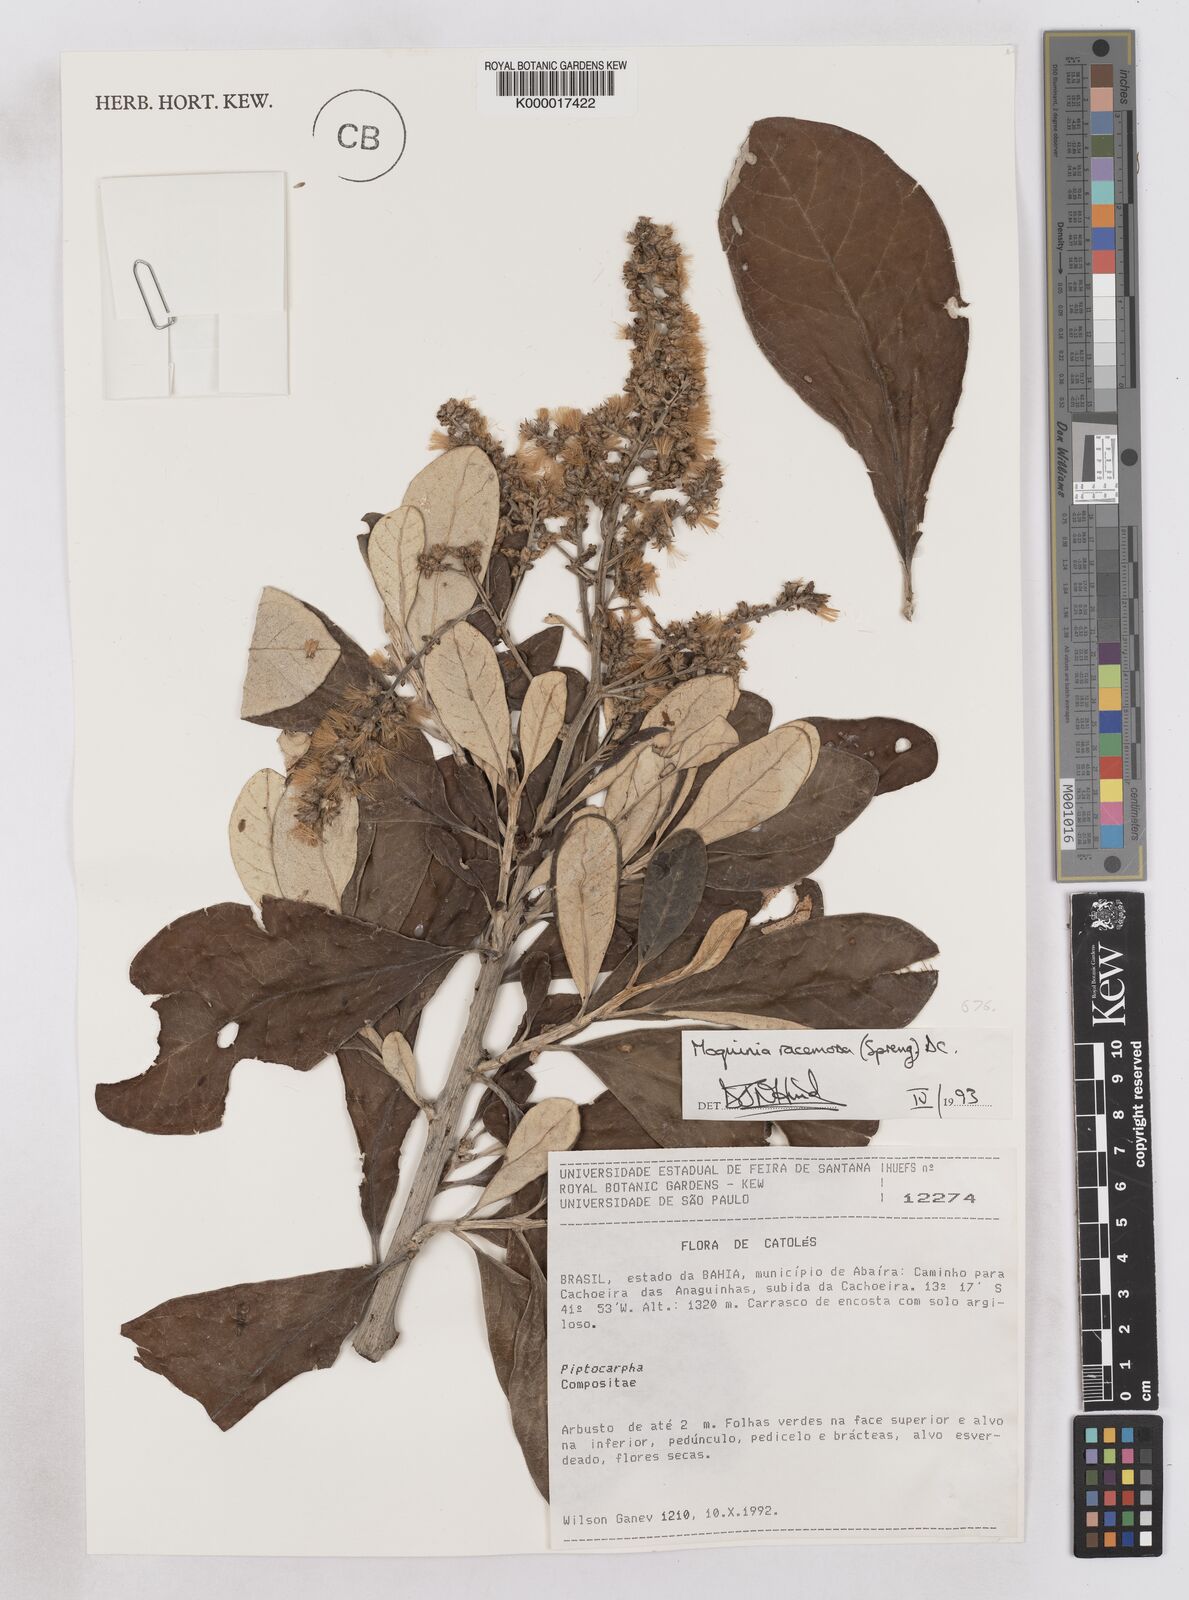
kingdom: Plantae
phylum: Tracheophyta
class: Magnoliopsida
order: Asterales
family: Asteraceae
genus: Moquinia
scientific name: Moquinia racemosa
